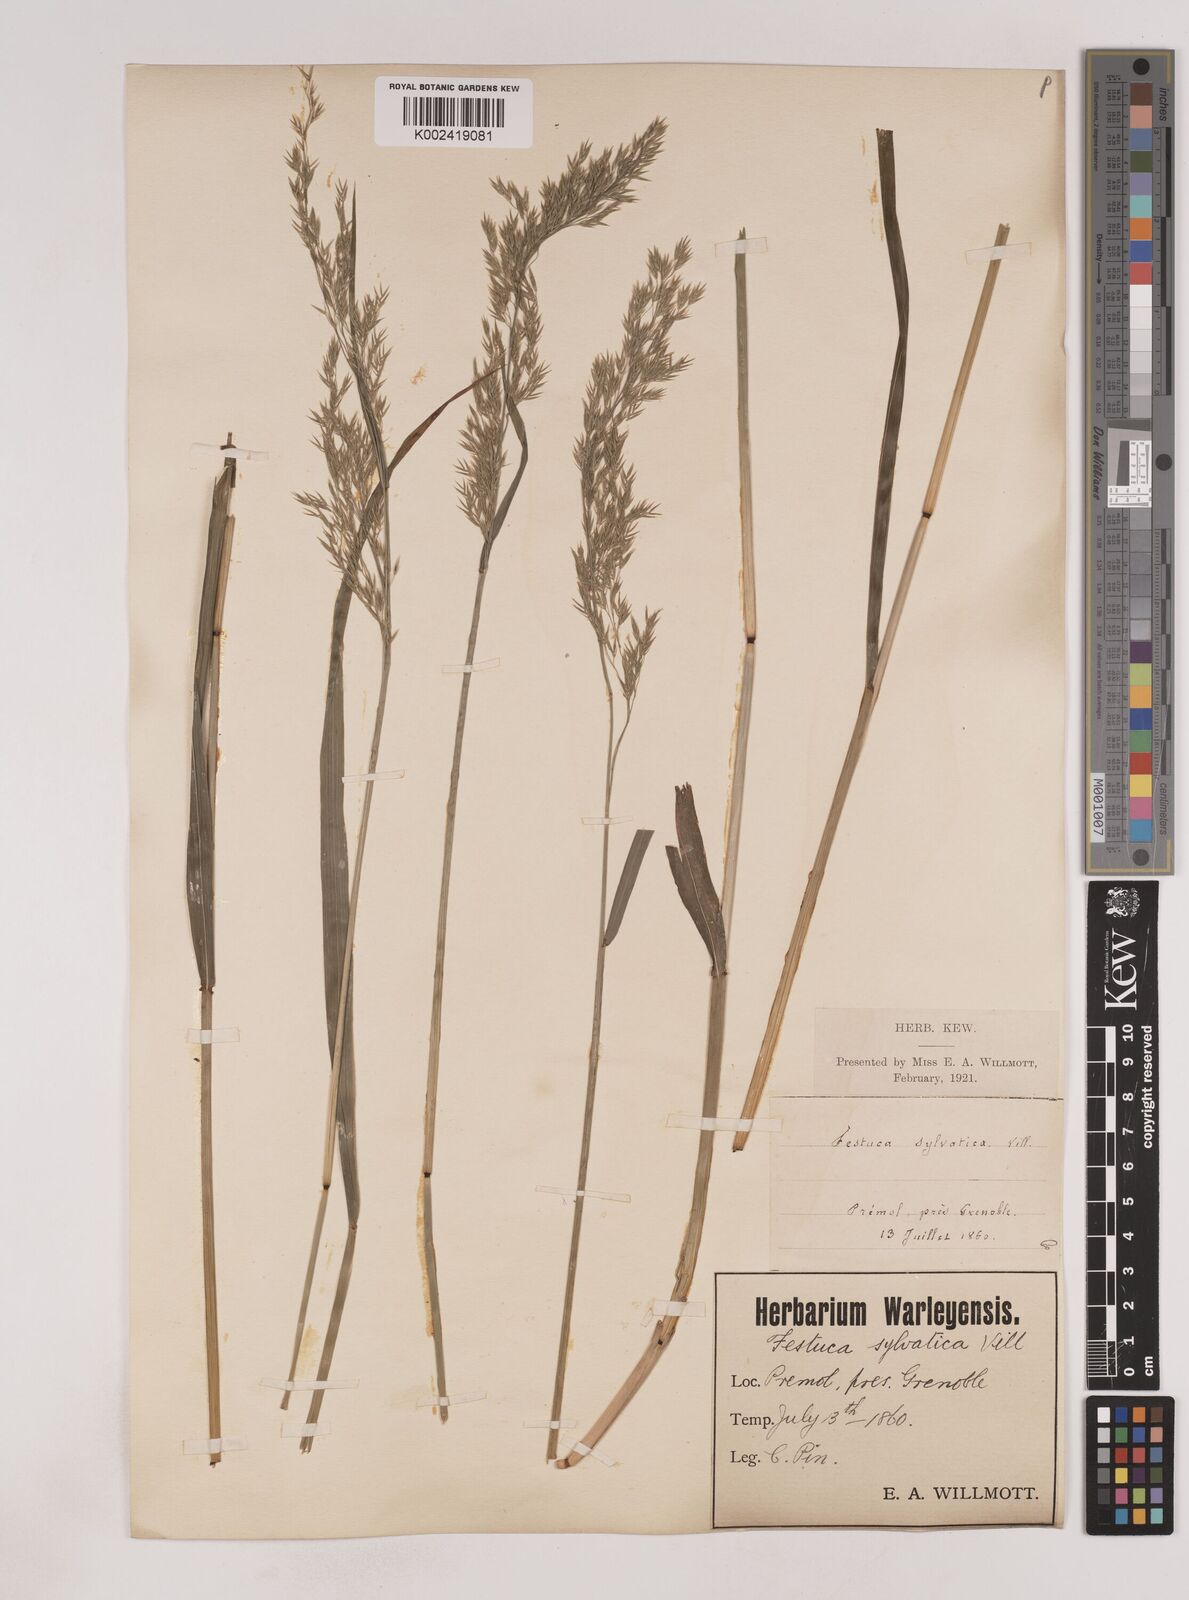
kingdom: Plantae
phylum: Tracheophyta
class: Liliopsida
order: Poales
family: Poaceae
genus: Festuca
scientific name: Festuca drymeja
